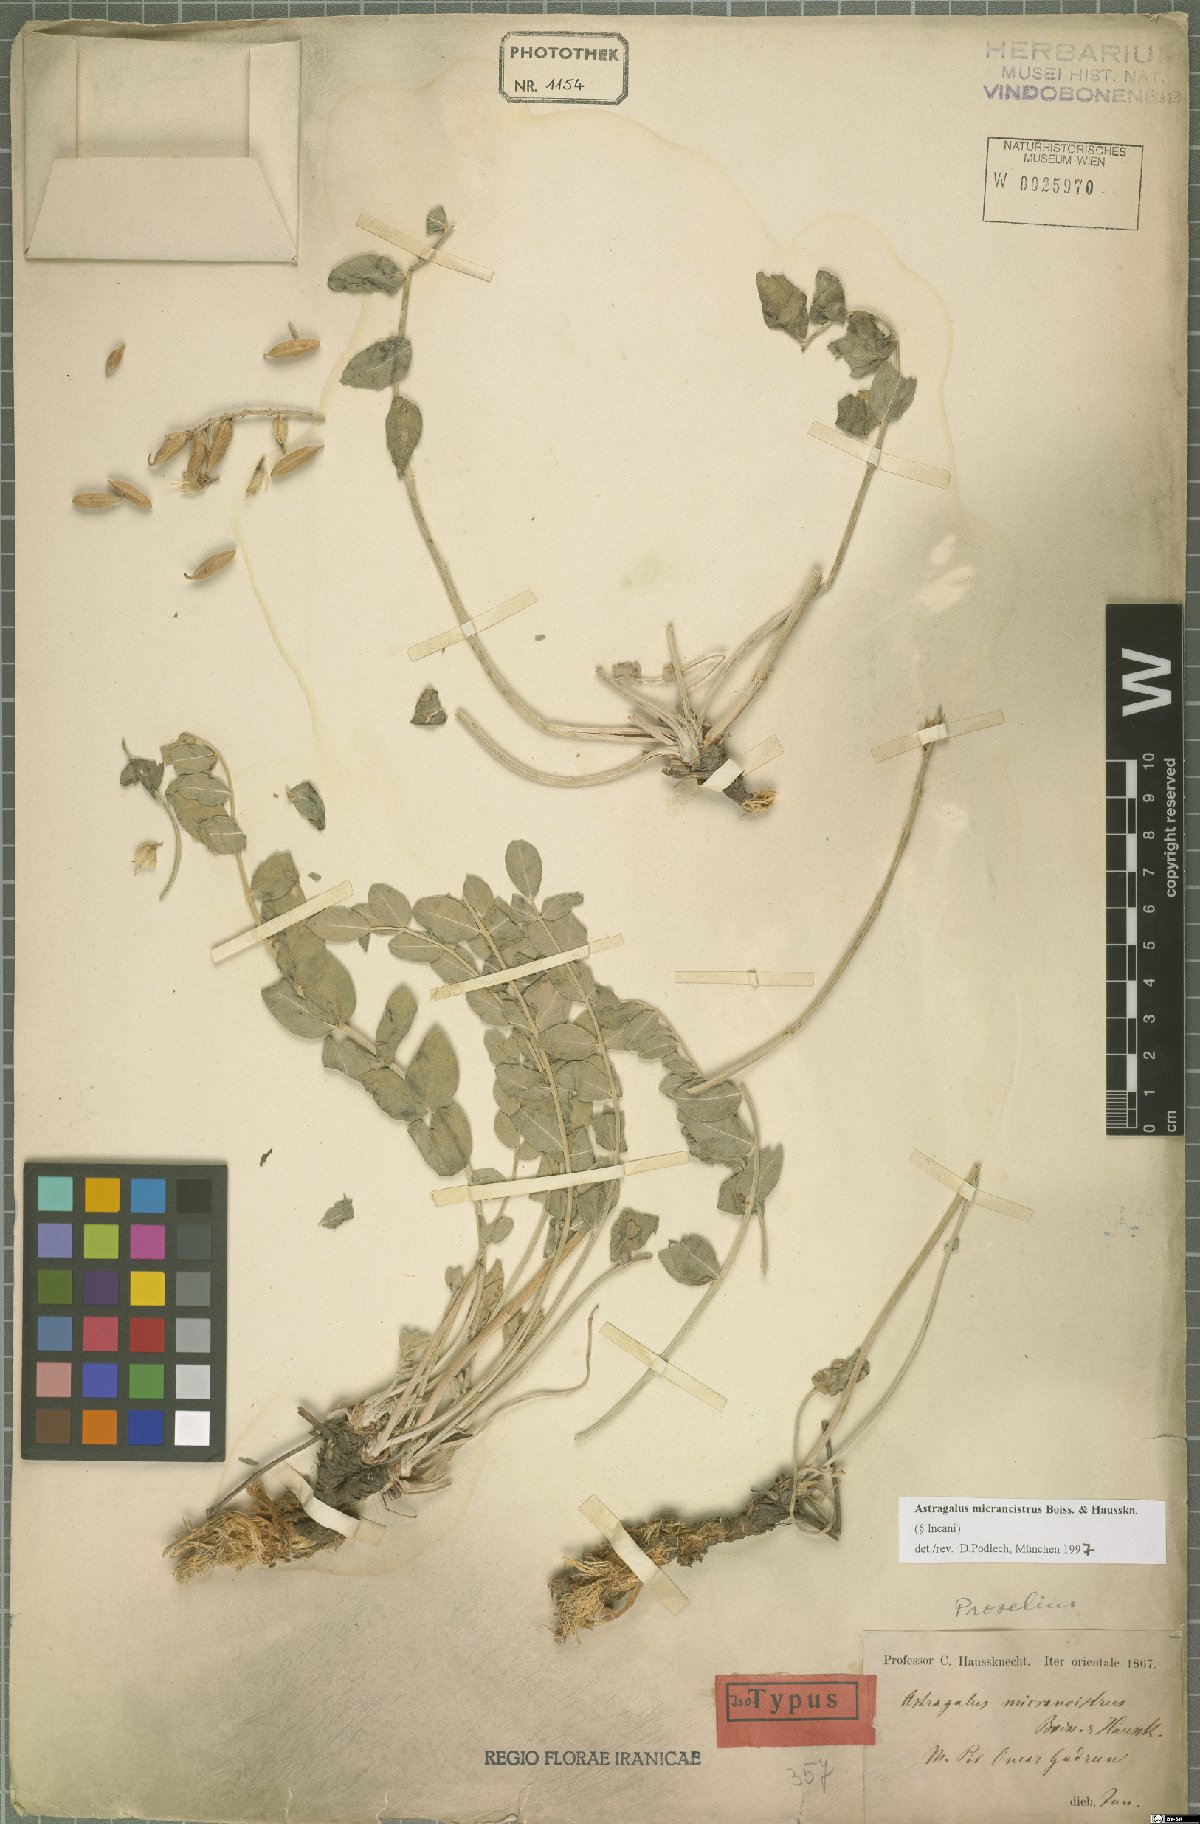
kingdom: Plantae
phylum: Tracheophyta
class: Magnoliopsida
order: Fabales
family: Fabaceae
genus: Astragalus
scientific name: Astragalus micrancistrus
